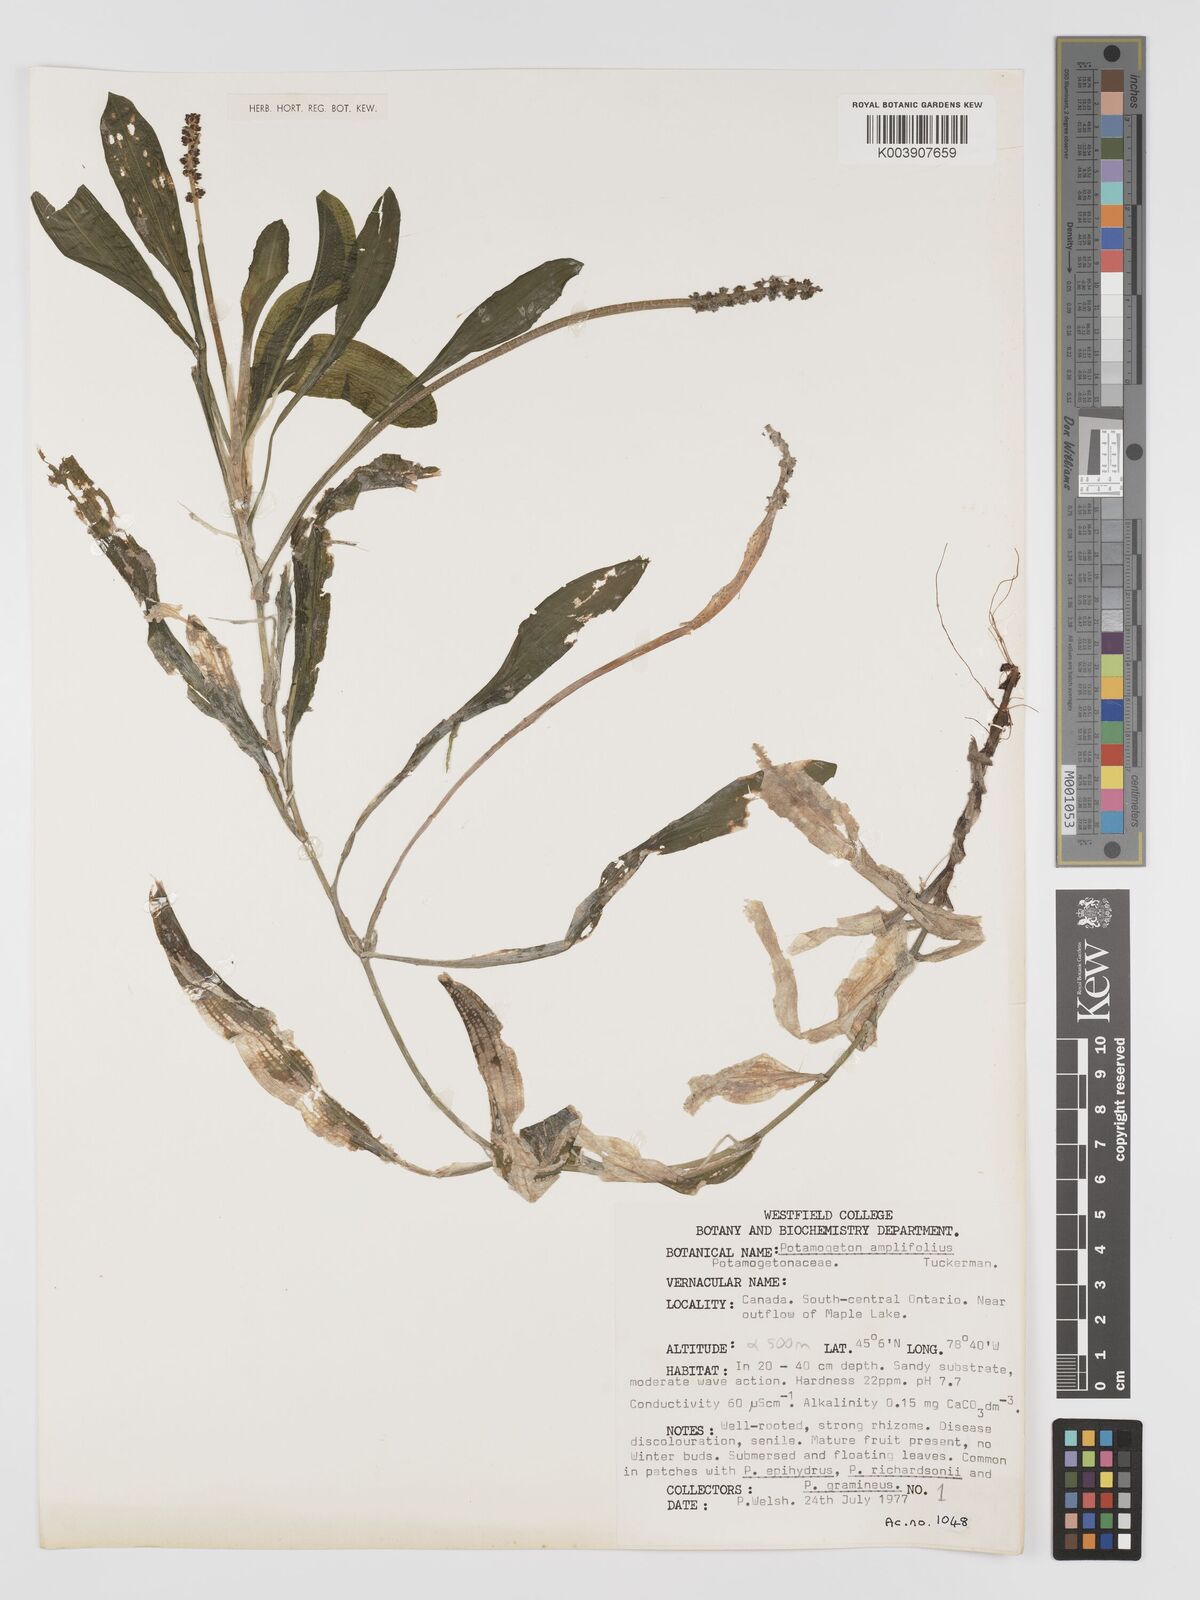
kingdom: Plantae
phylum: Tracheophyta
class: Liliopsida
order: Alismatales
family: Potamogetonaceae
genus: Potamogeton
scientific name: Potamogeton amplifolius
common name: Broad-leaved pondweed
